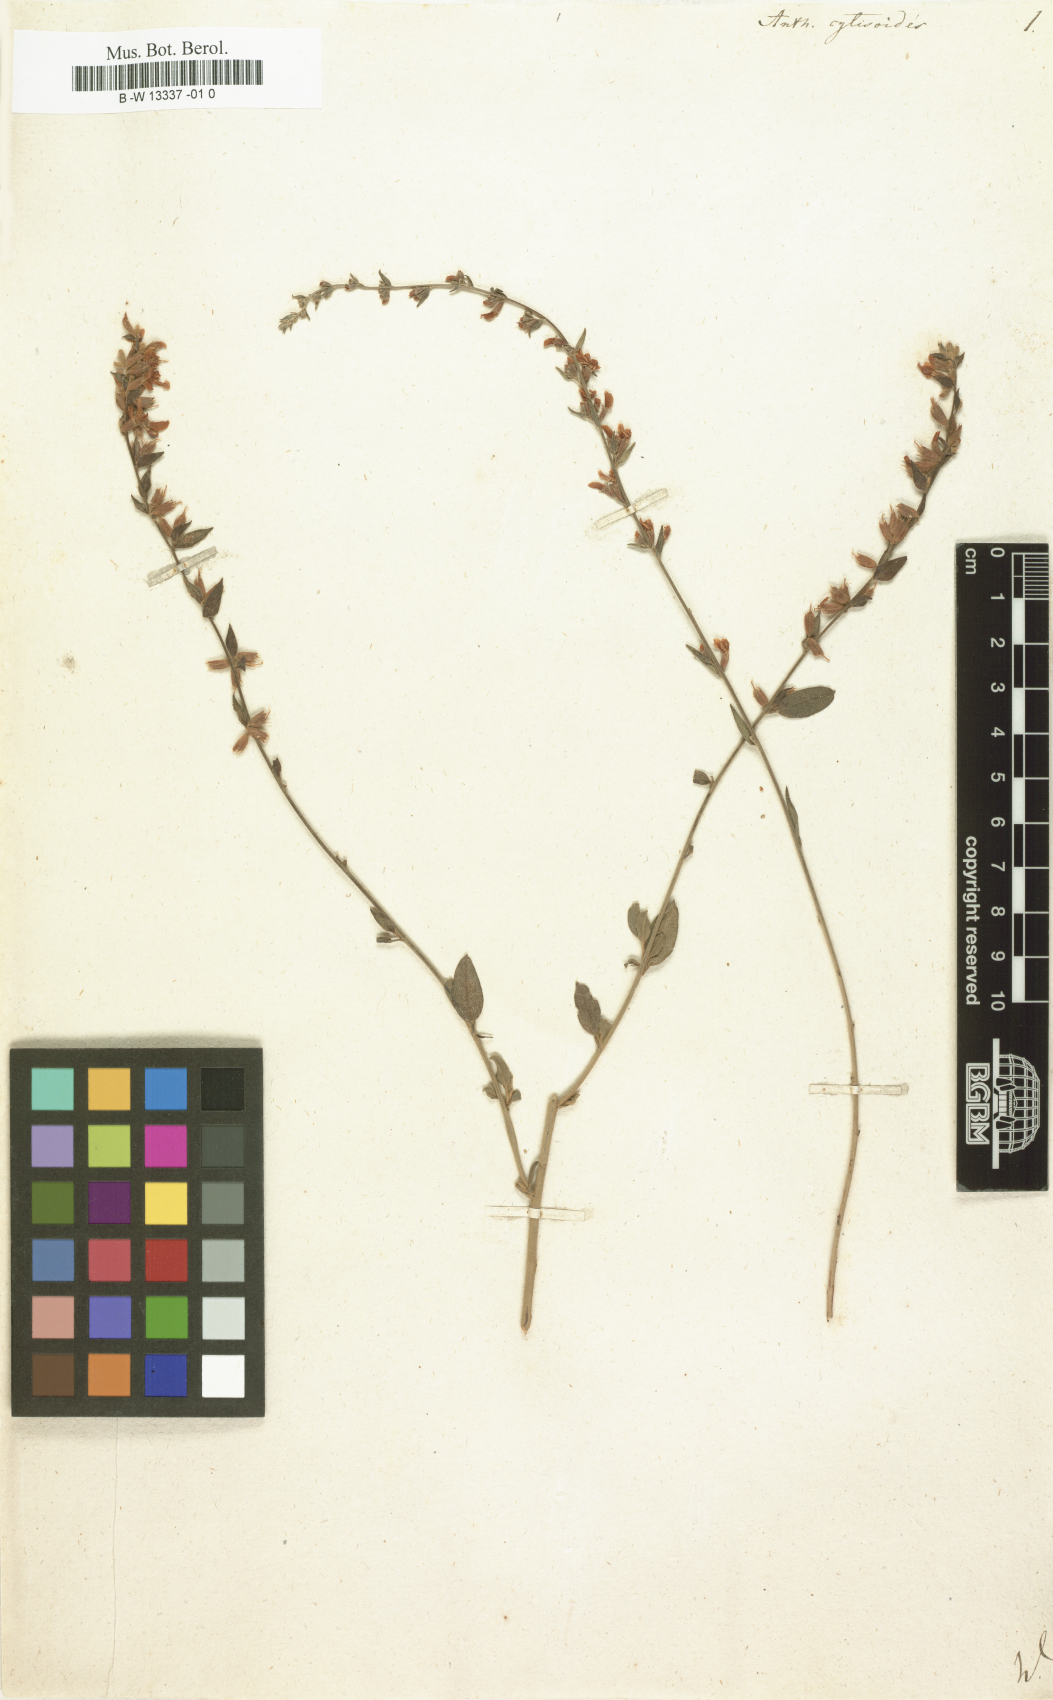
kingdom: Plantae
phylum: Tracheophyta
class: Magnoliopsida
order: Fabales
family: Fabaceae
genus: Anthyllis
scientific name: Anthyllis cytisoides
